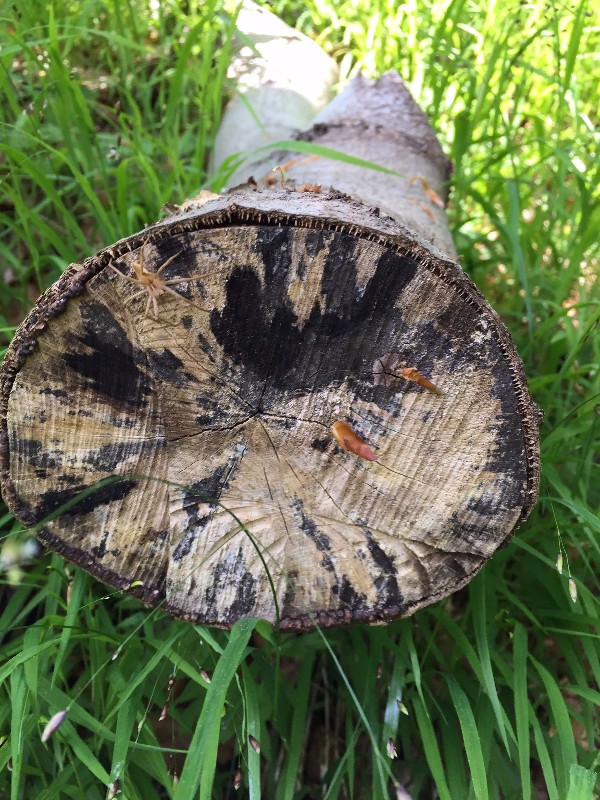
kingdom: Fungi
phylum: Ascomycota
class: Leotiomycetes
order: Helotiales
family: Helotiaceae
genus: Bispora
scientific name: Bispora pallescens
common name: måtte-snitskive
